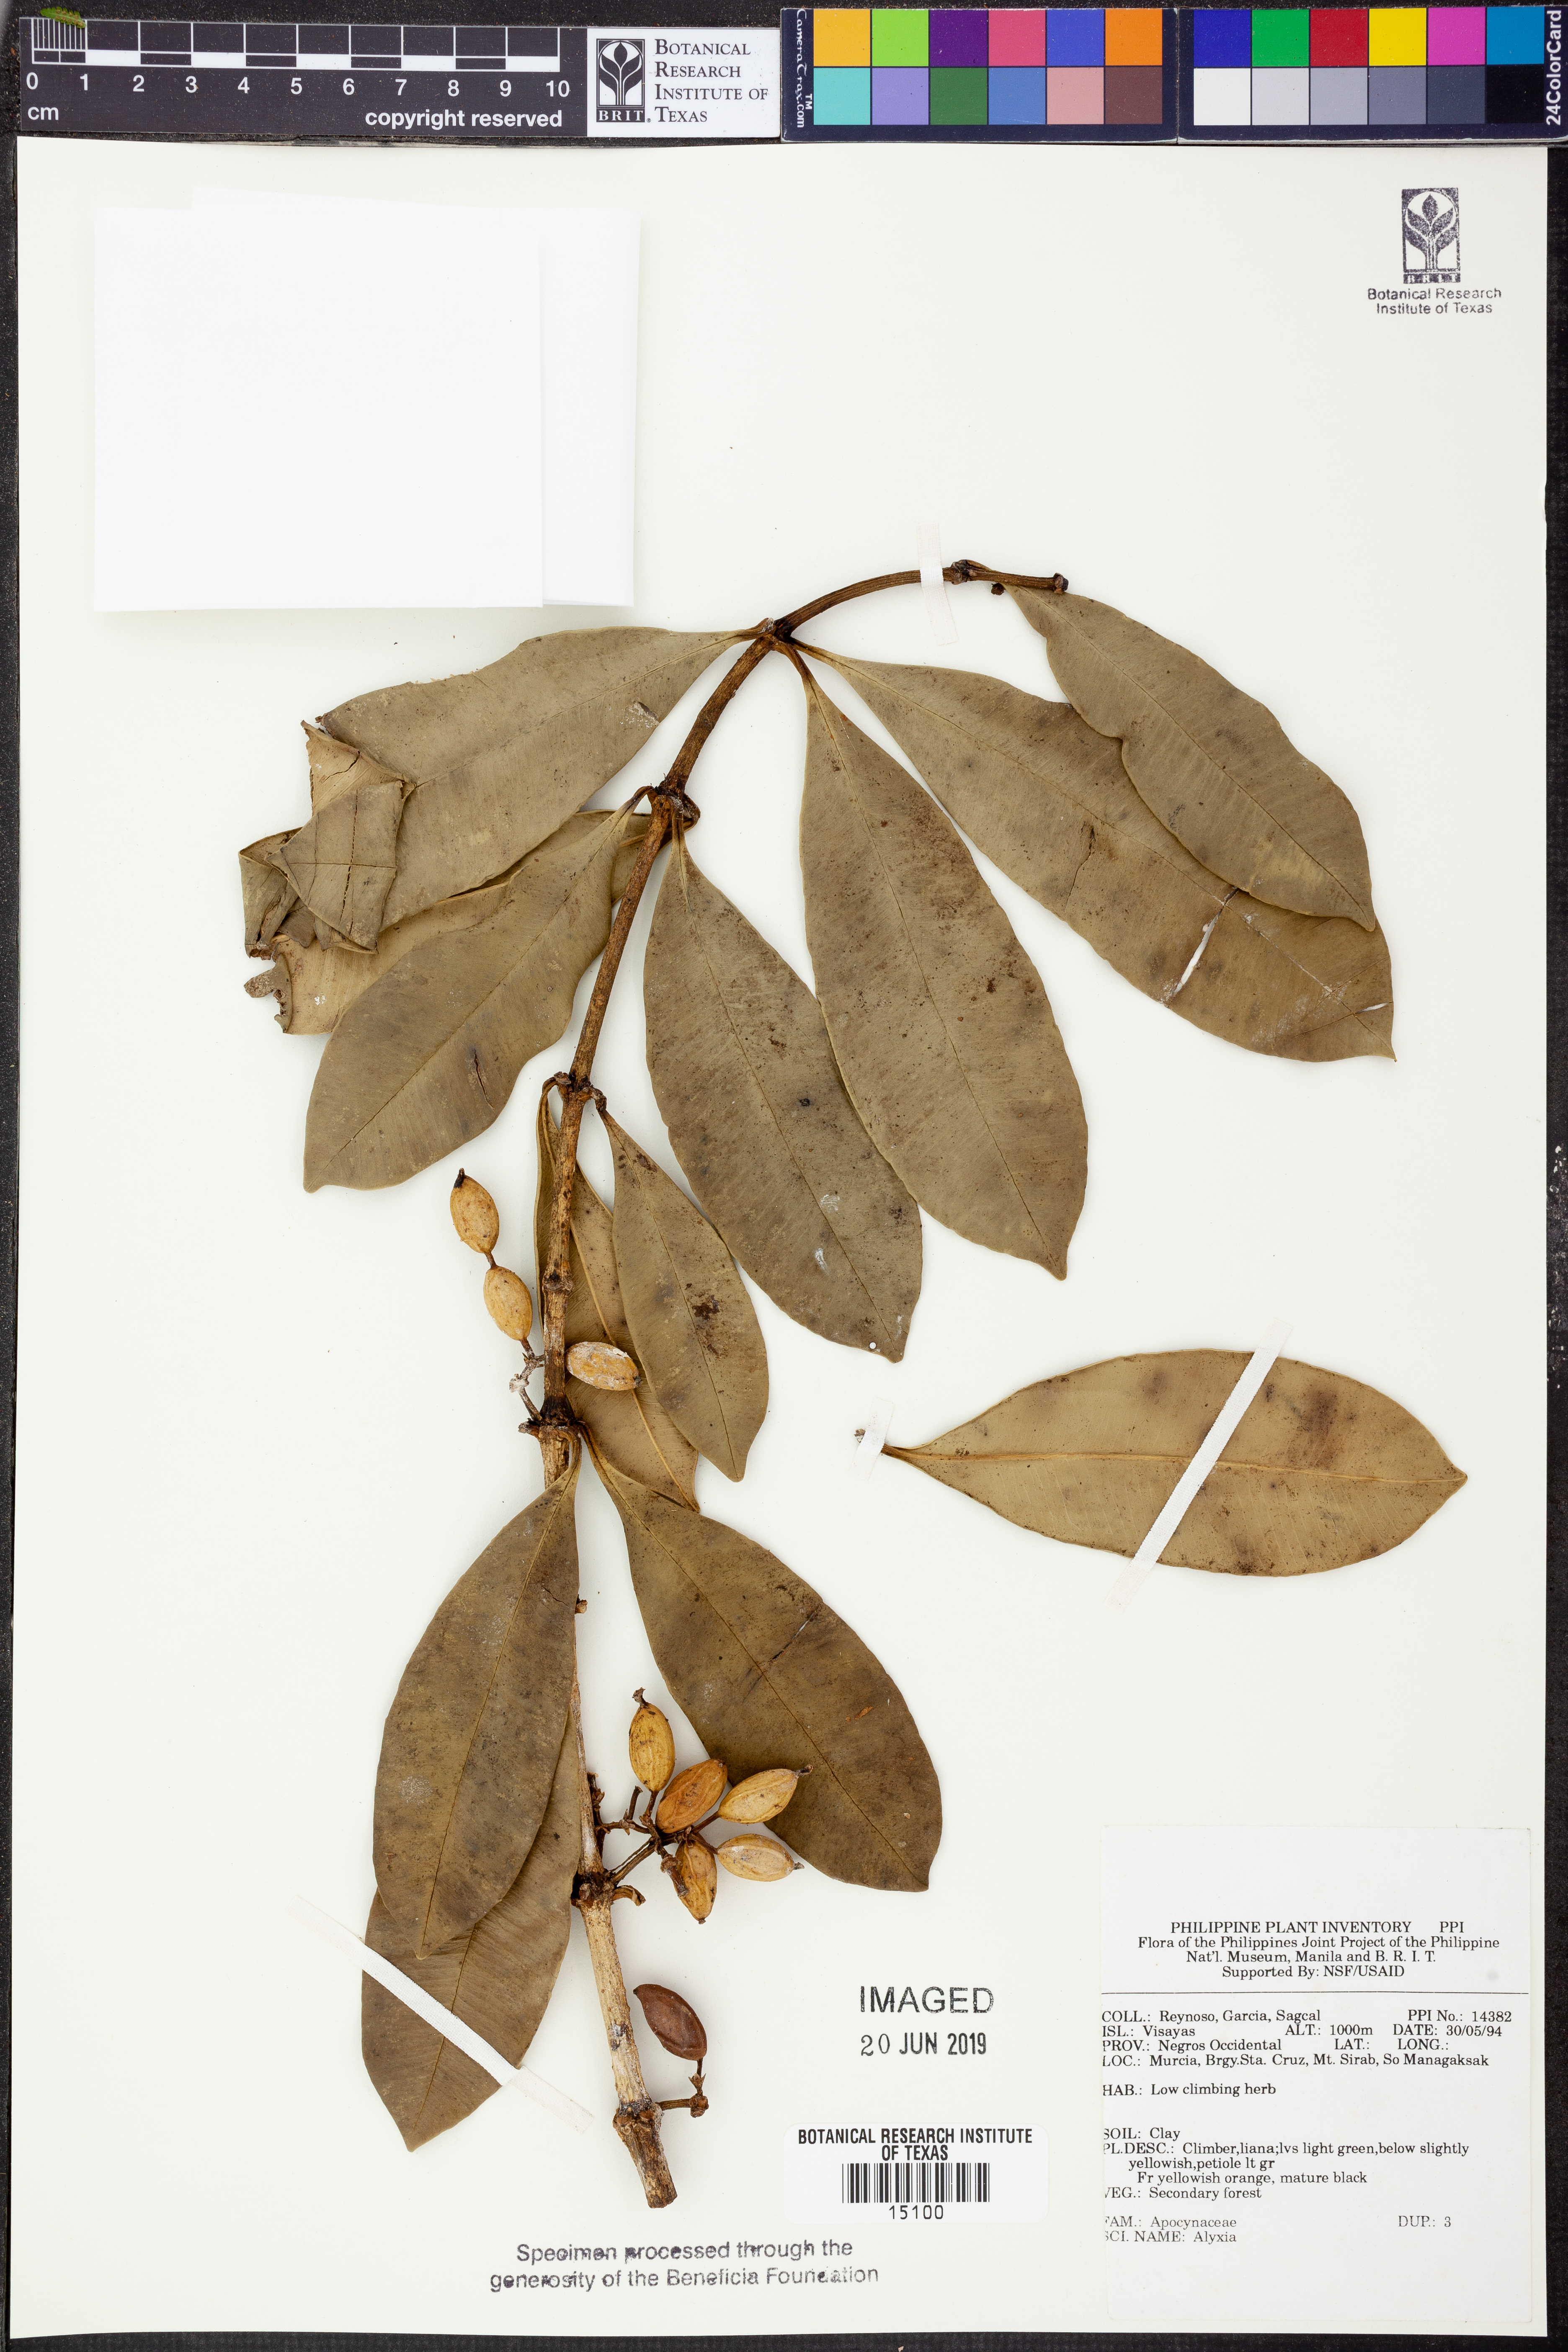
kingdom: Plantae
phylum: Tracheophyta
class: Magnoliopsida
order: Gentianales
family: Apocynaceae
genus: Alyxia
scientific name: Alyxia
